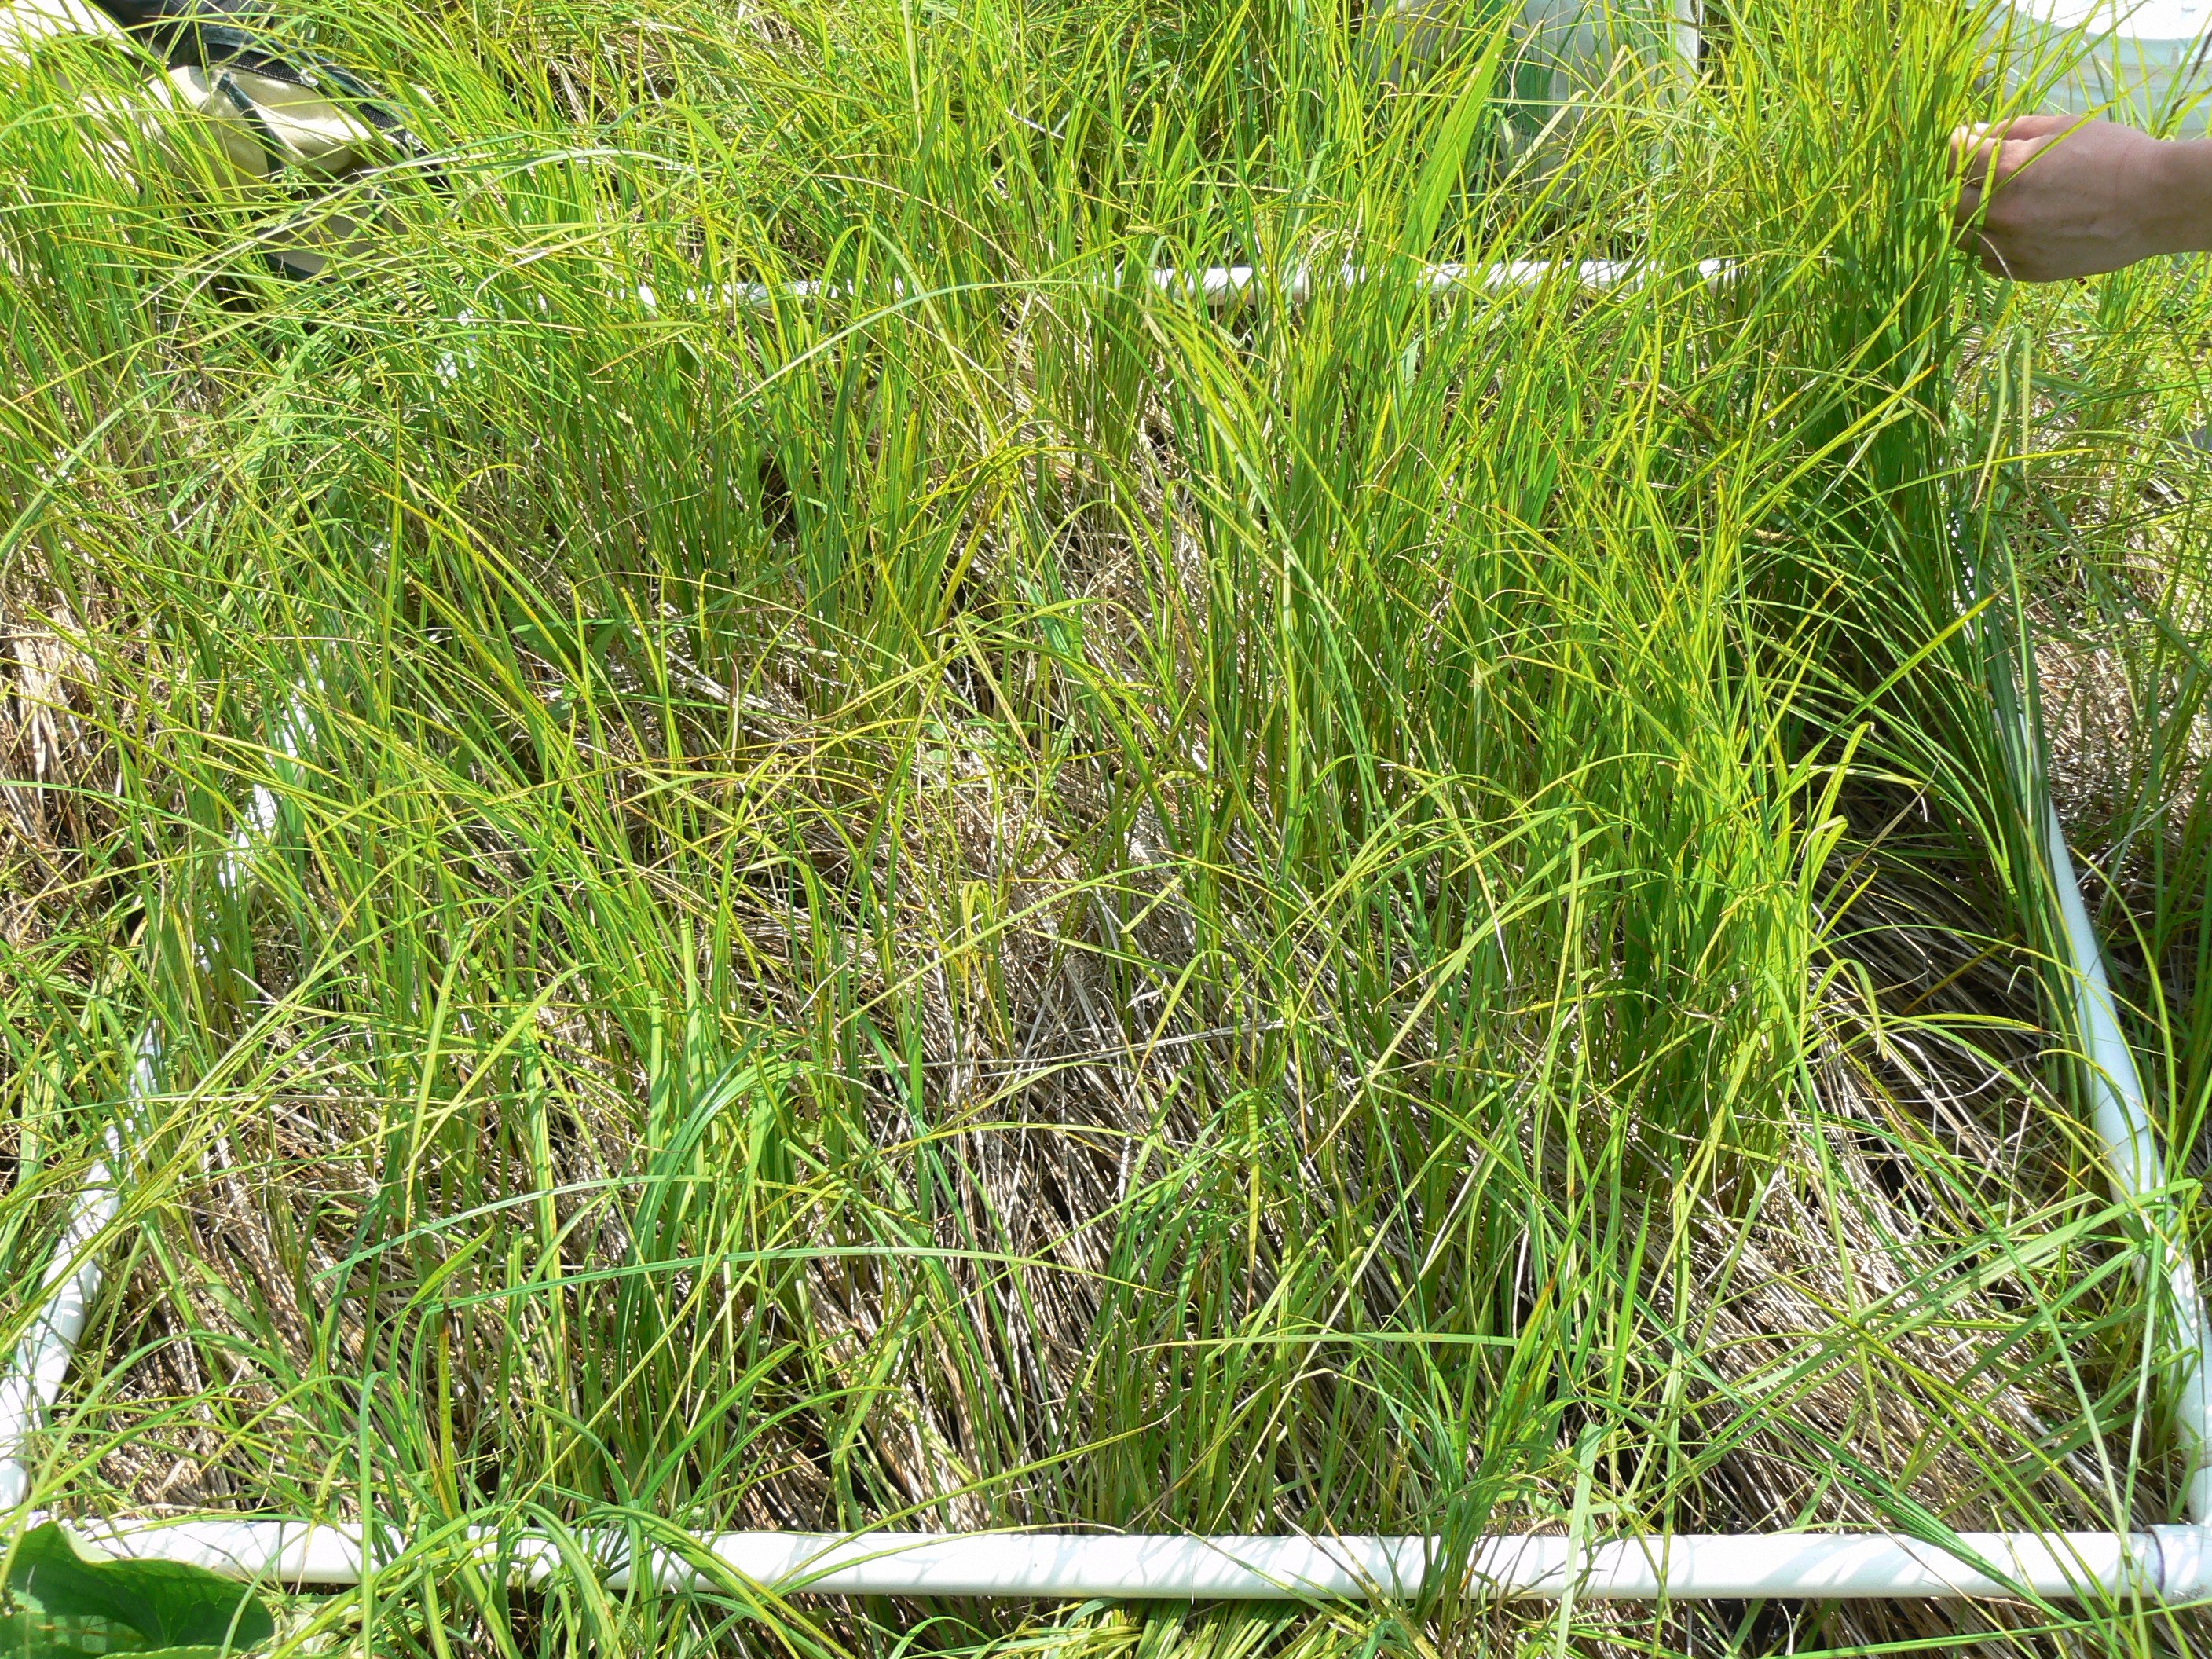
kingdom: Plantae
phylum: Tracheophyta
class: Magnoliopsida
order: Asterales
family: Asteraceae
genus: Eutrochium
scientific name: Eutrochium maculatum
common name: Spotted joe pye weed
